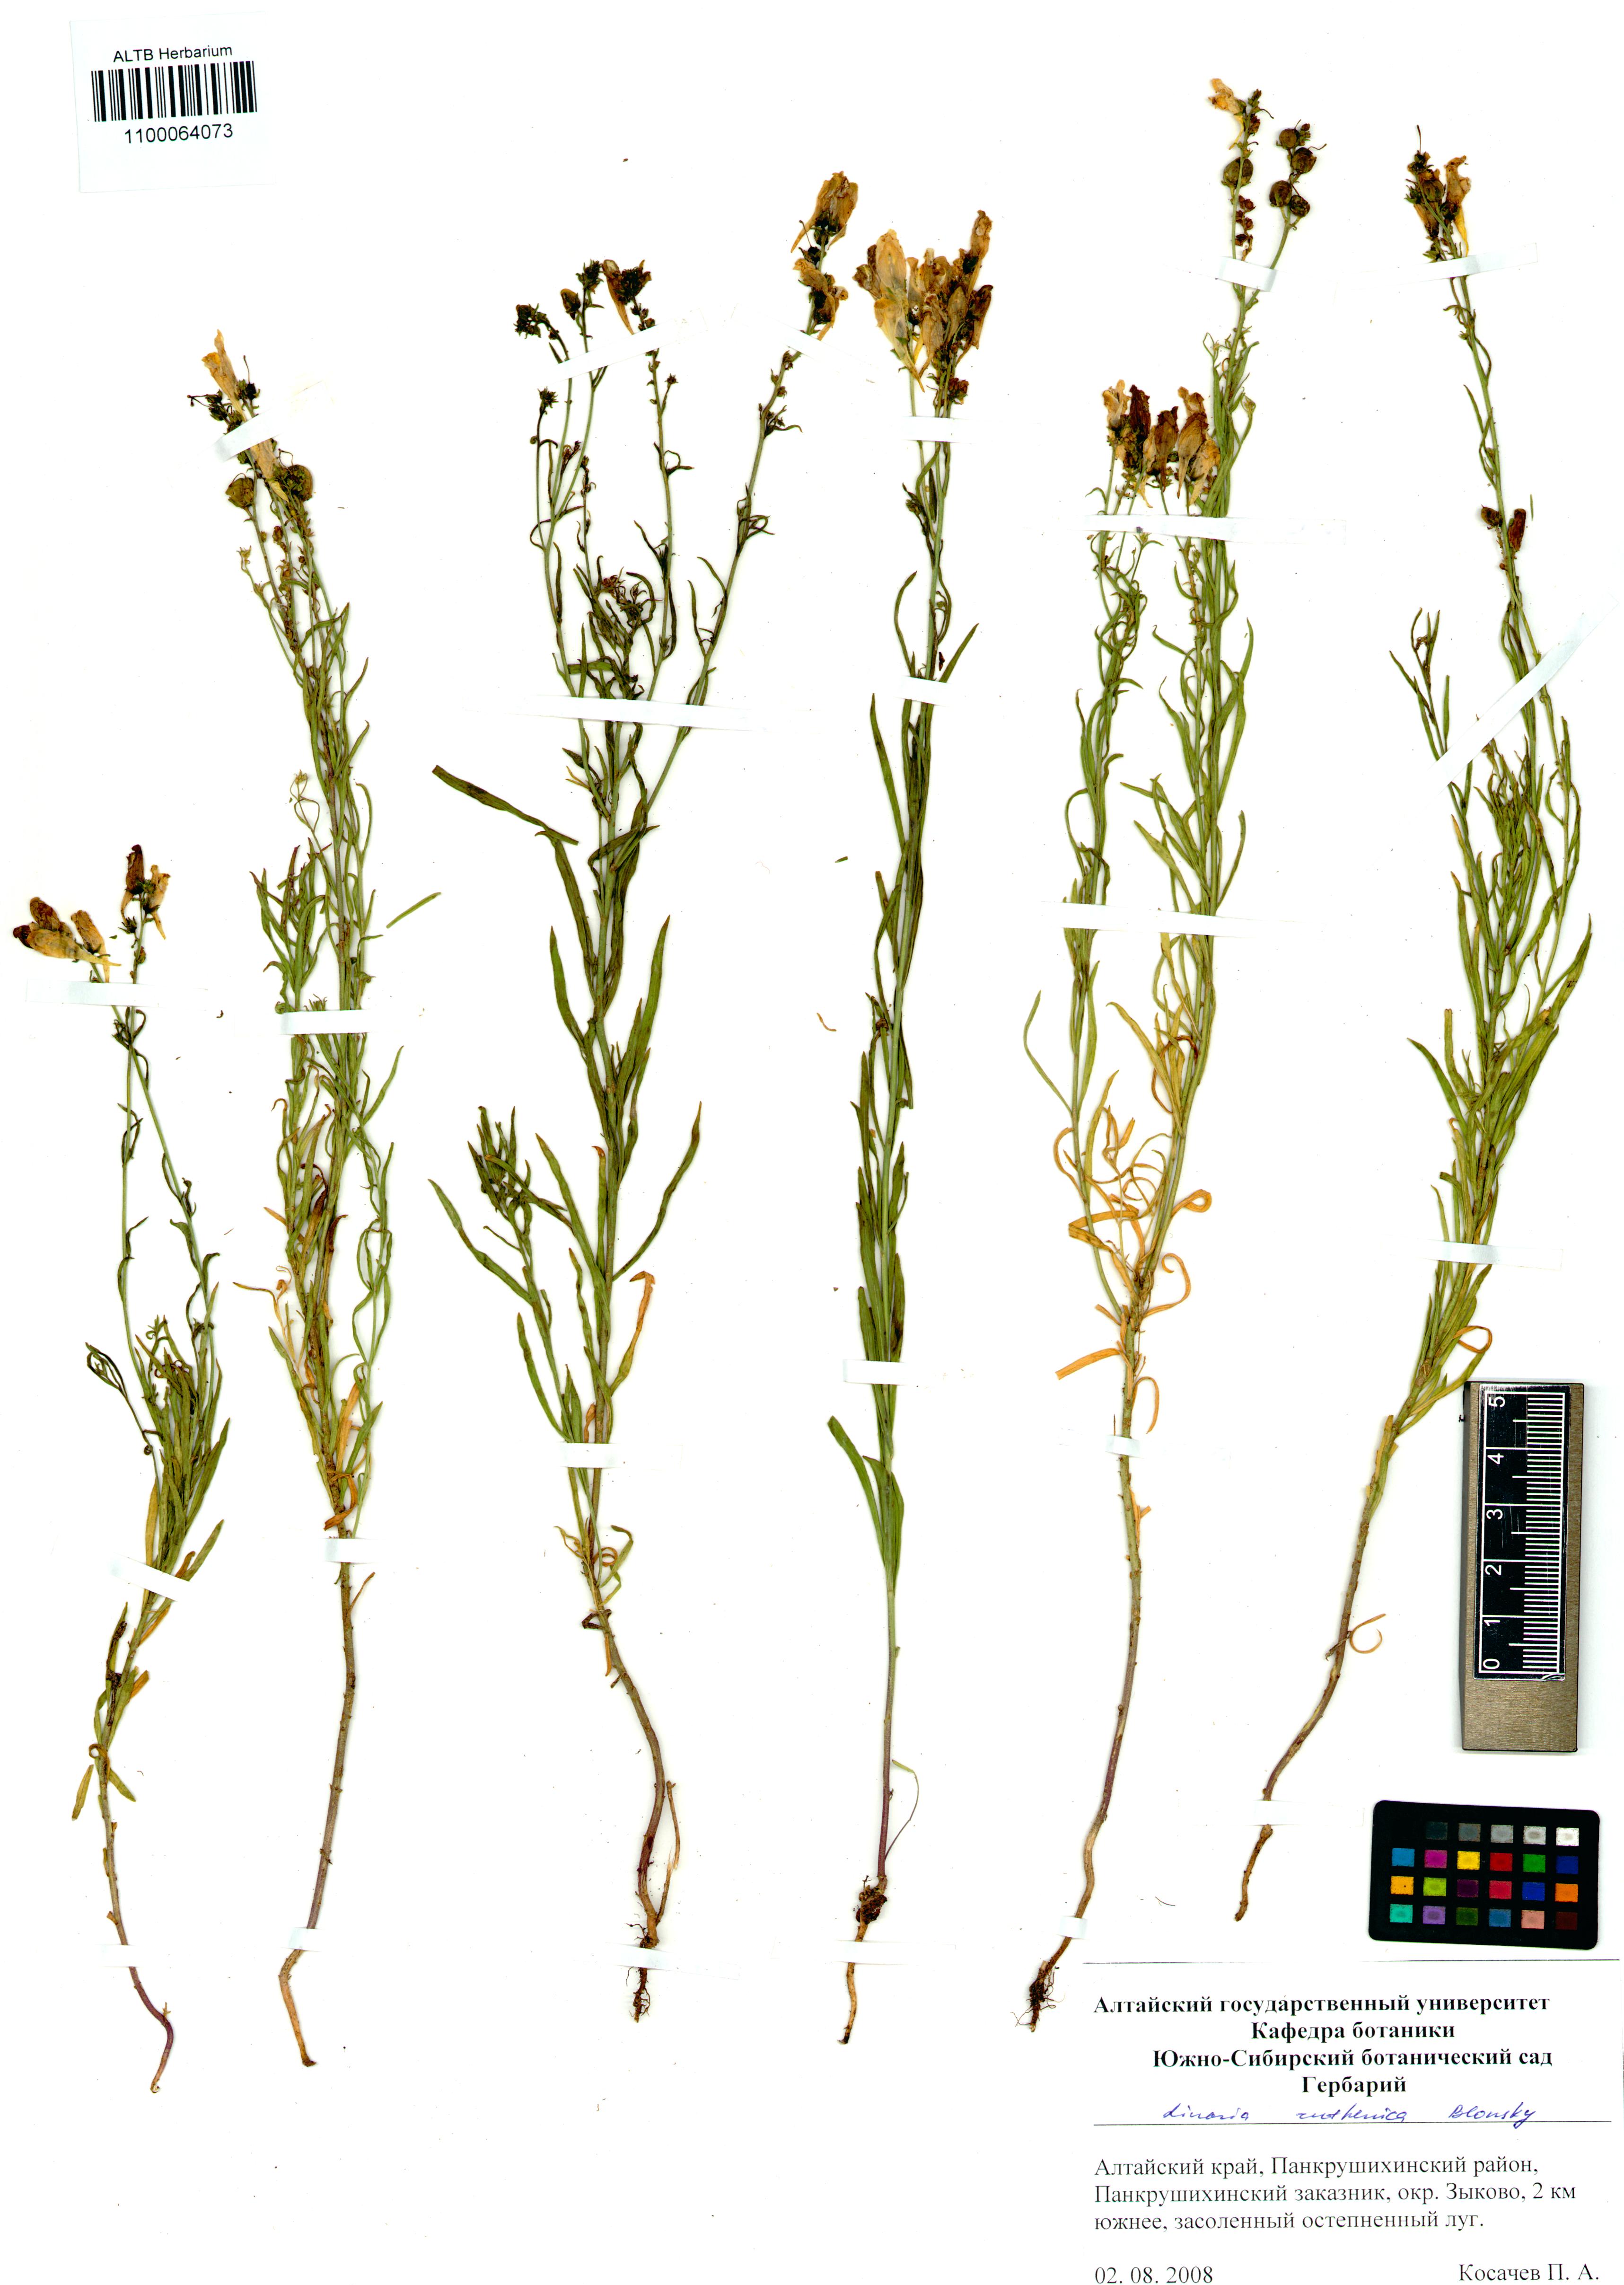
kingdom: Plantae
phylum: Tracheophyta
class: Magnoliopsida
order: Lamiales
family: Plantaginaceae
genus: Linaria
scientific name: Linaria biebersteinii
